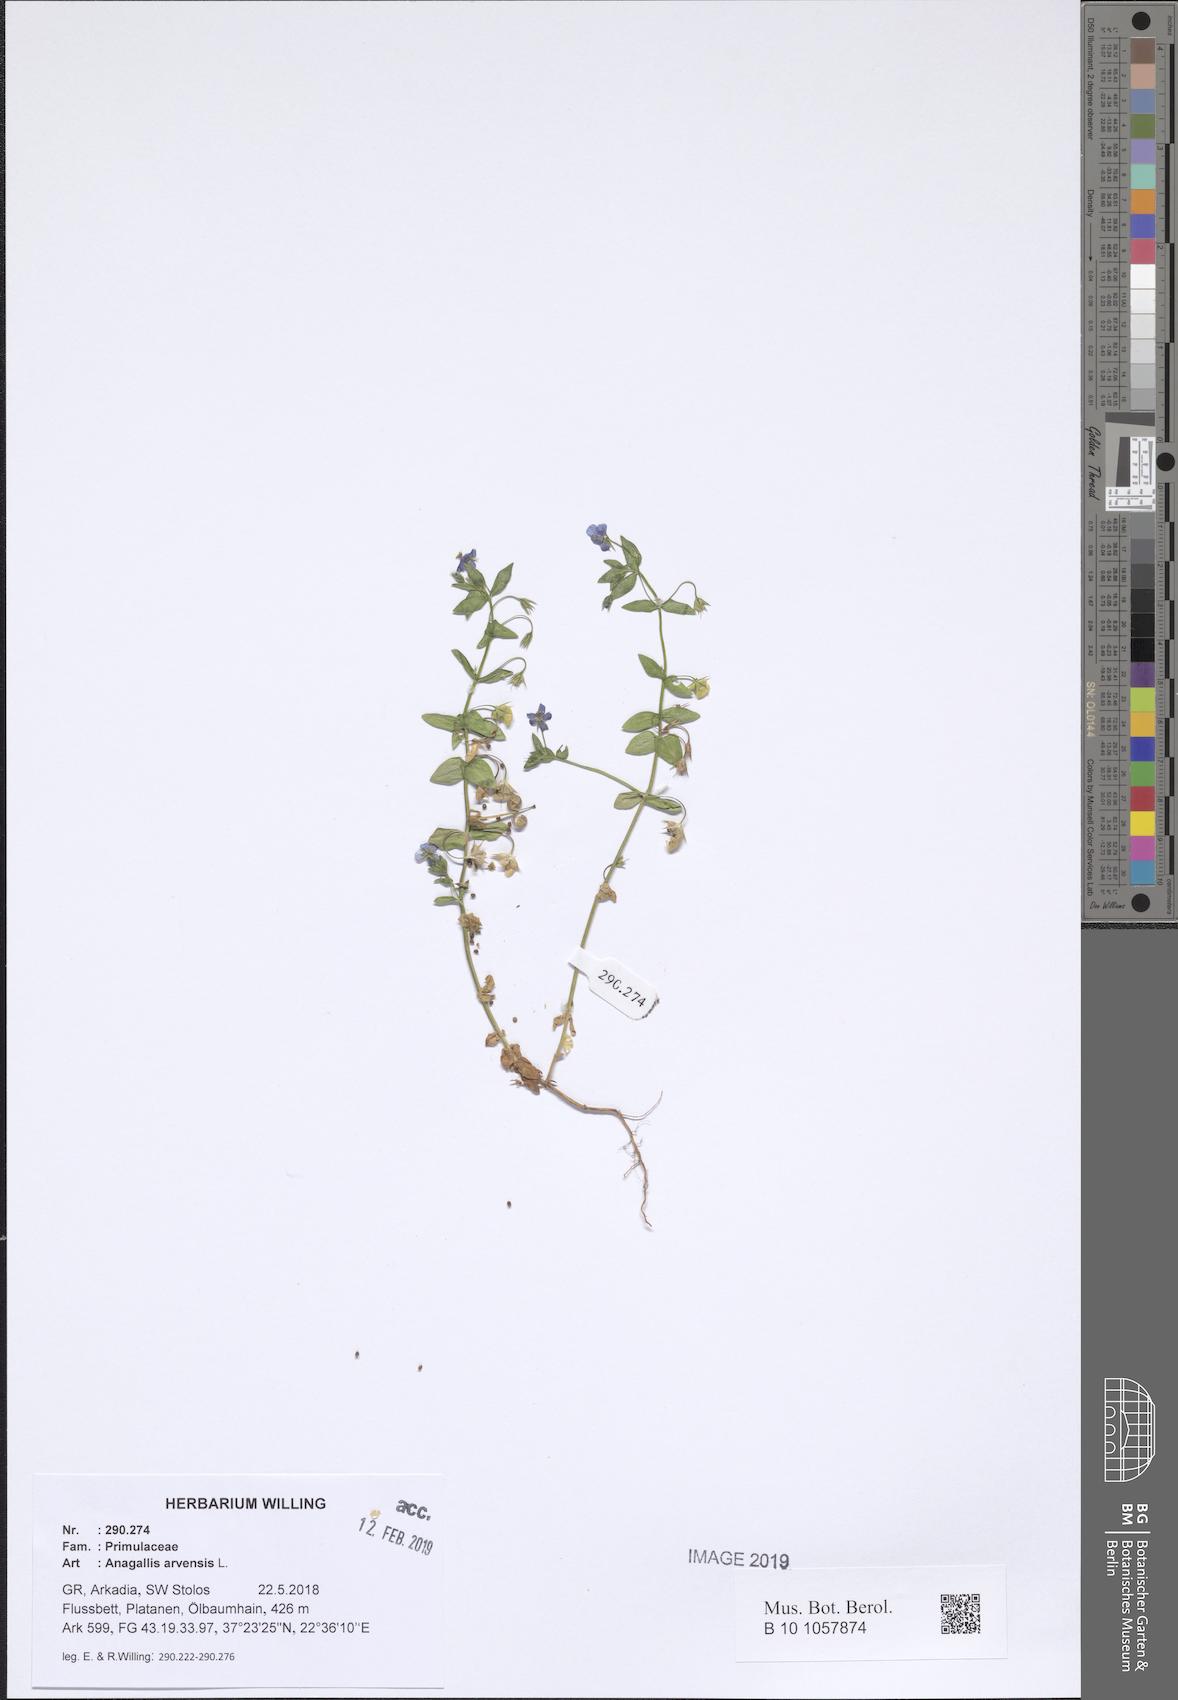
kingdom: Plantae
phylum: Tracheophyta
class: Magnoliopsida
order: Ericales
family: Primulaceae
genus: Lysimachia
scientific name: Lysimachia arvensis
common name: Scarlet pimpernel
